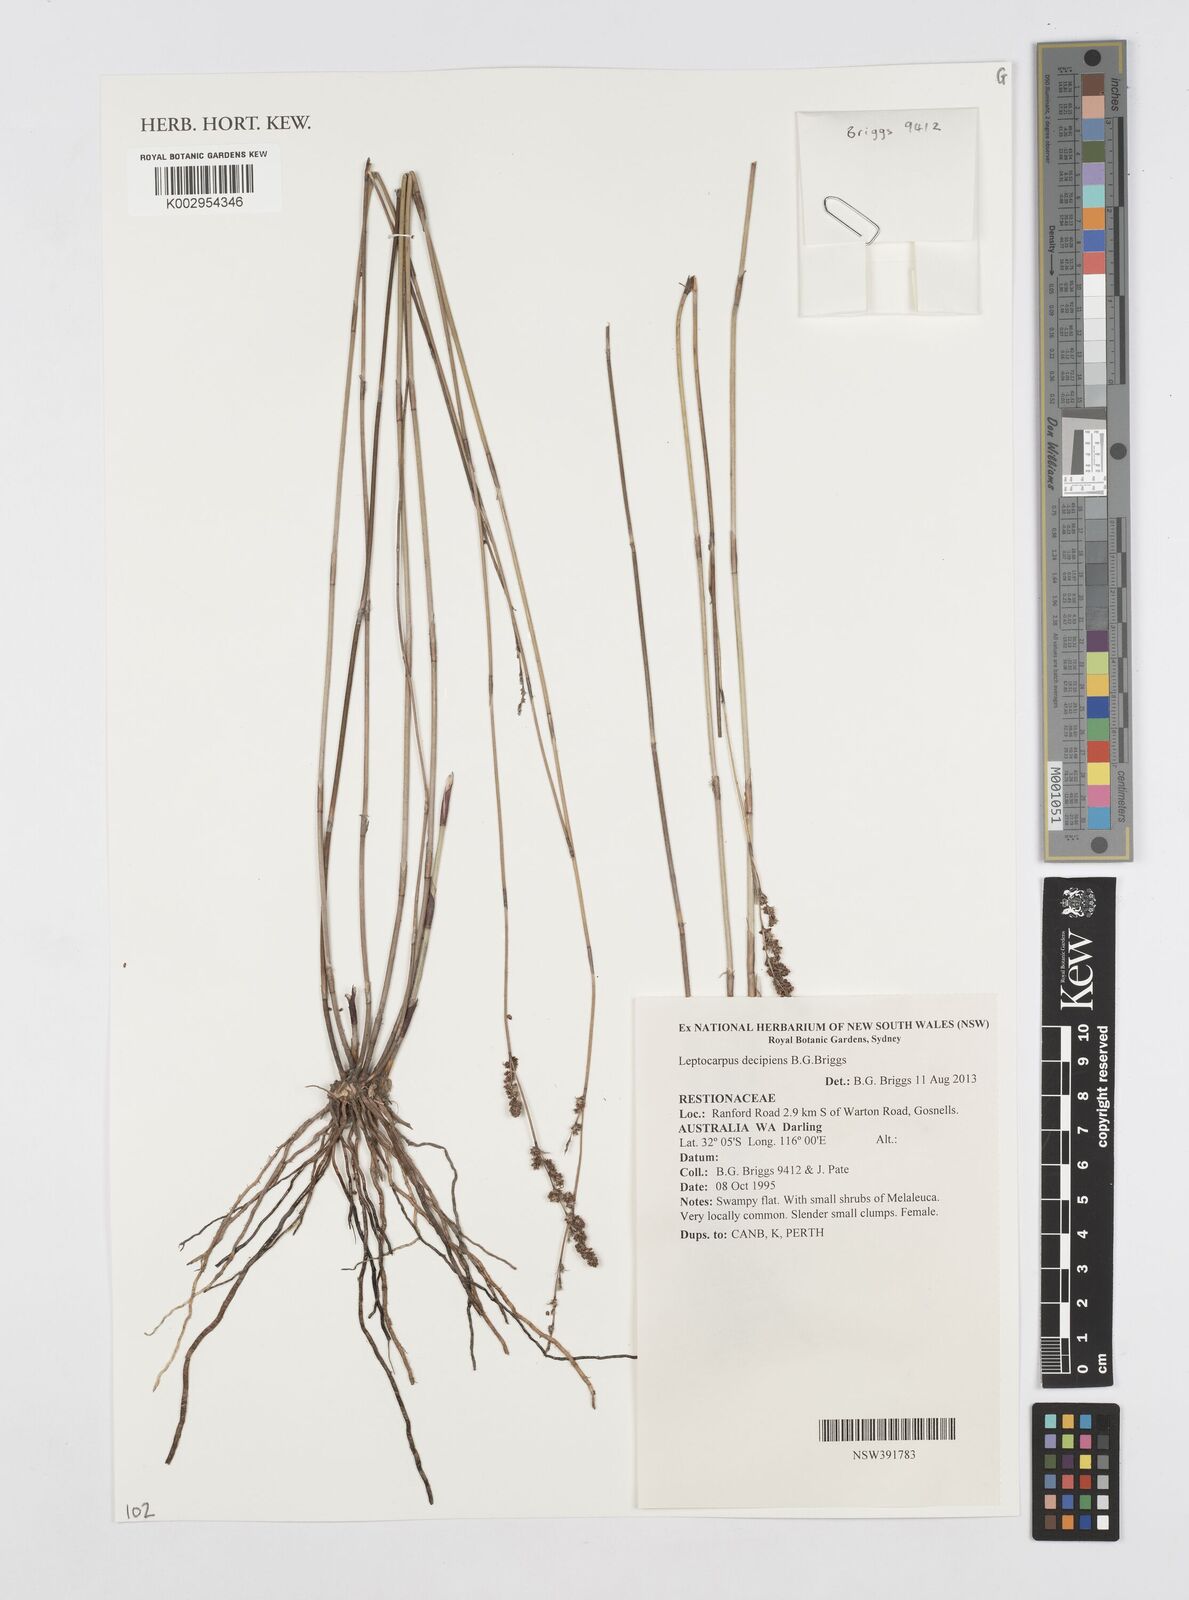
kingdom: Plantae
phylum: Tracheophyta
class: Liliopsida
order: Poales
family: Restionaceae
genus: Leptocarpus
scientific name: Leptocarpus decipiens
